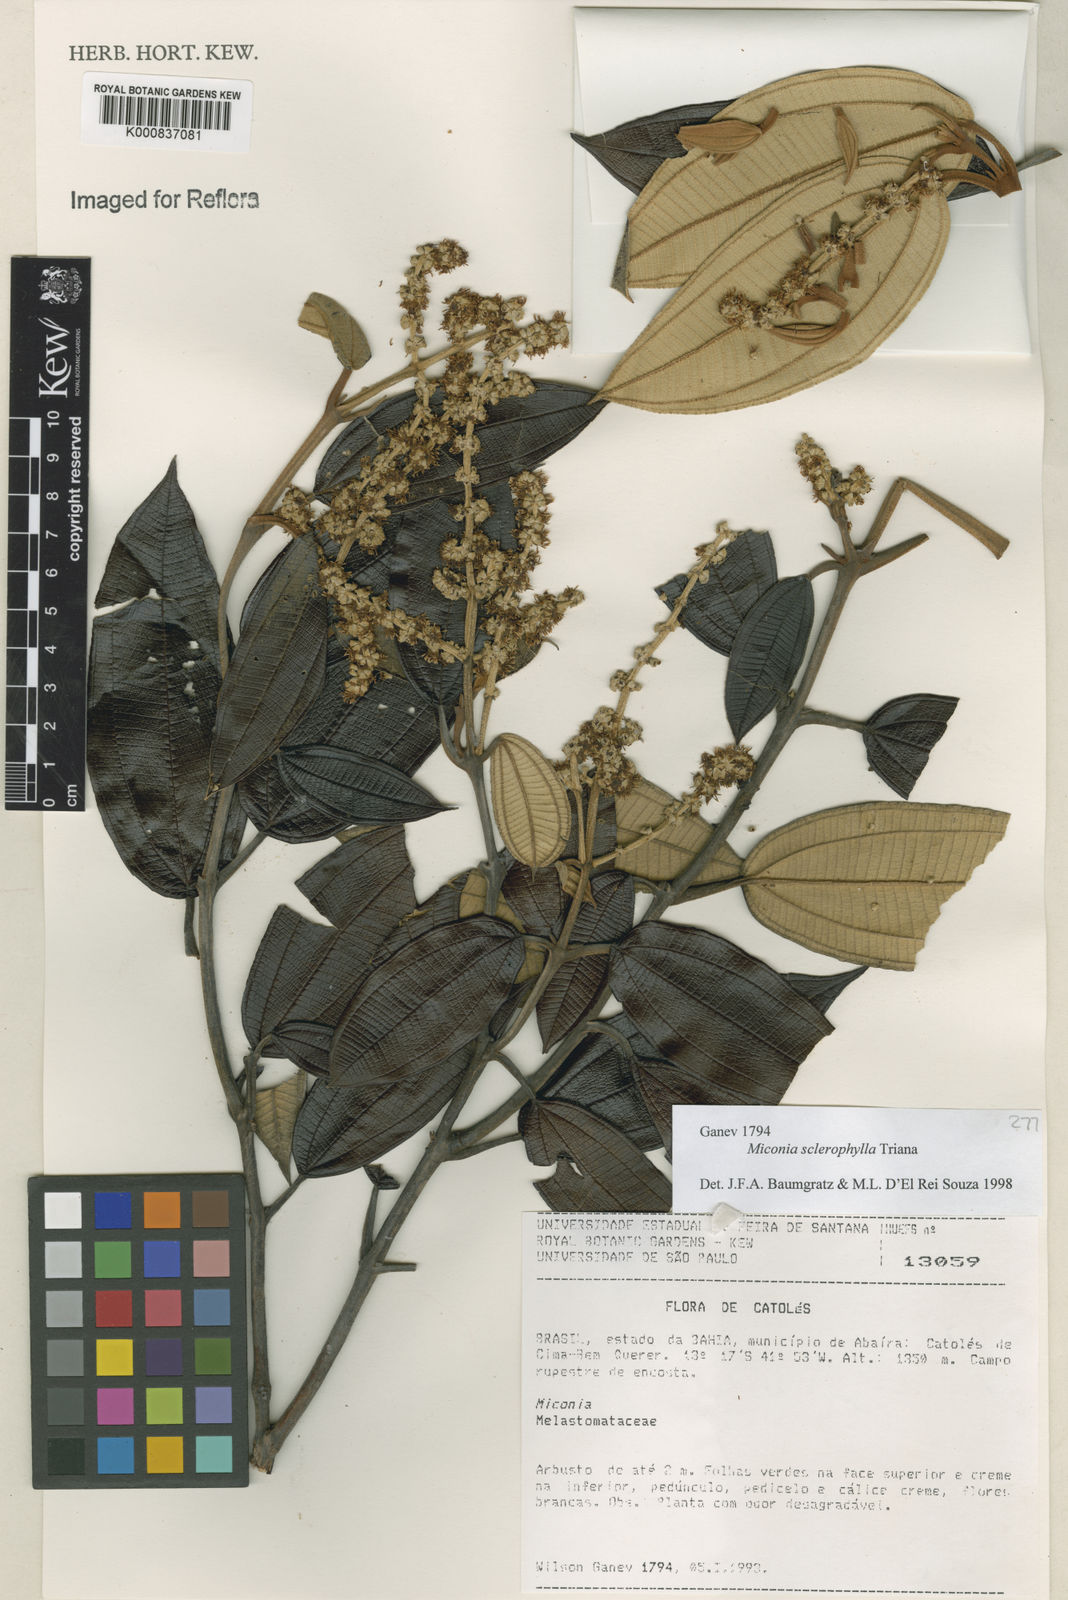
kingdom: Plantae
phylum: Tracheophyta
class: Magnoliopsida
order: Myrtales
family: Melastomataceae
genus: Miconia
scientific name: Miconia sclerophylla
